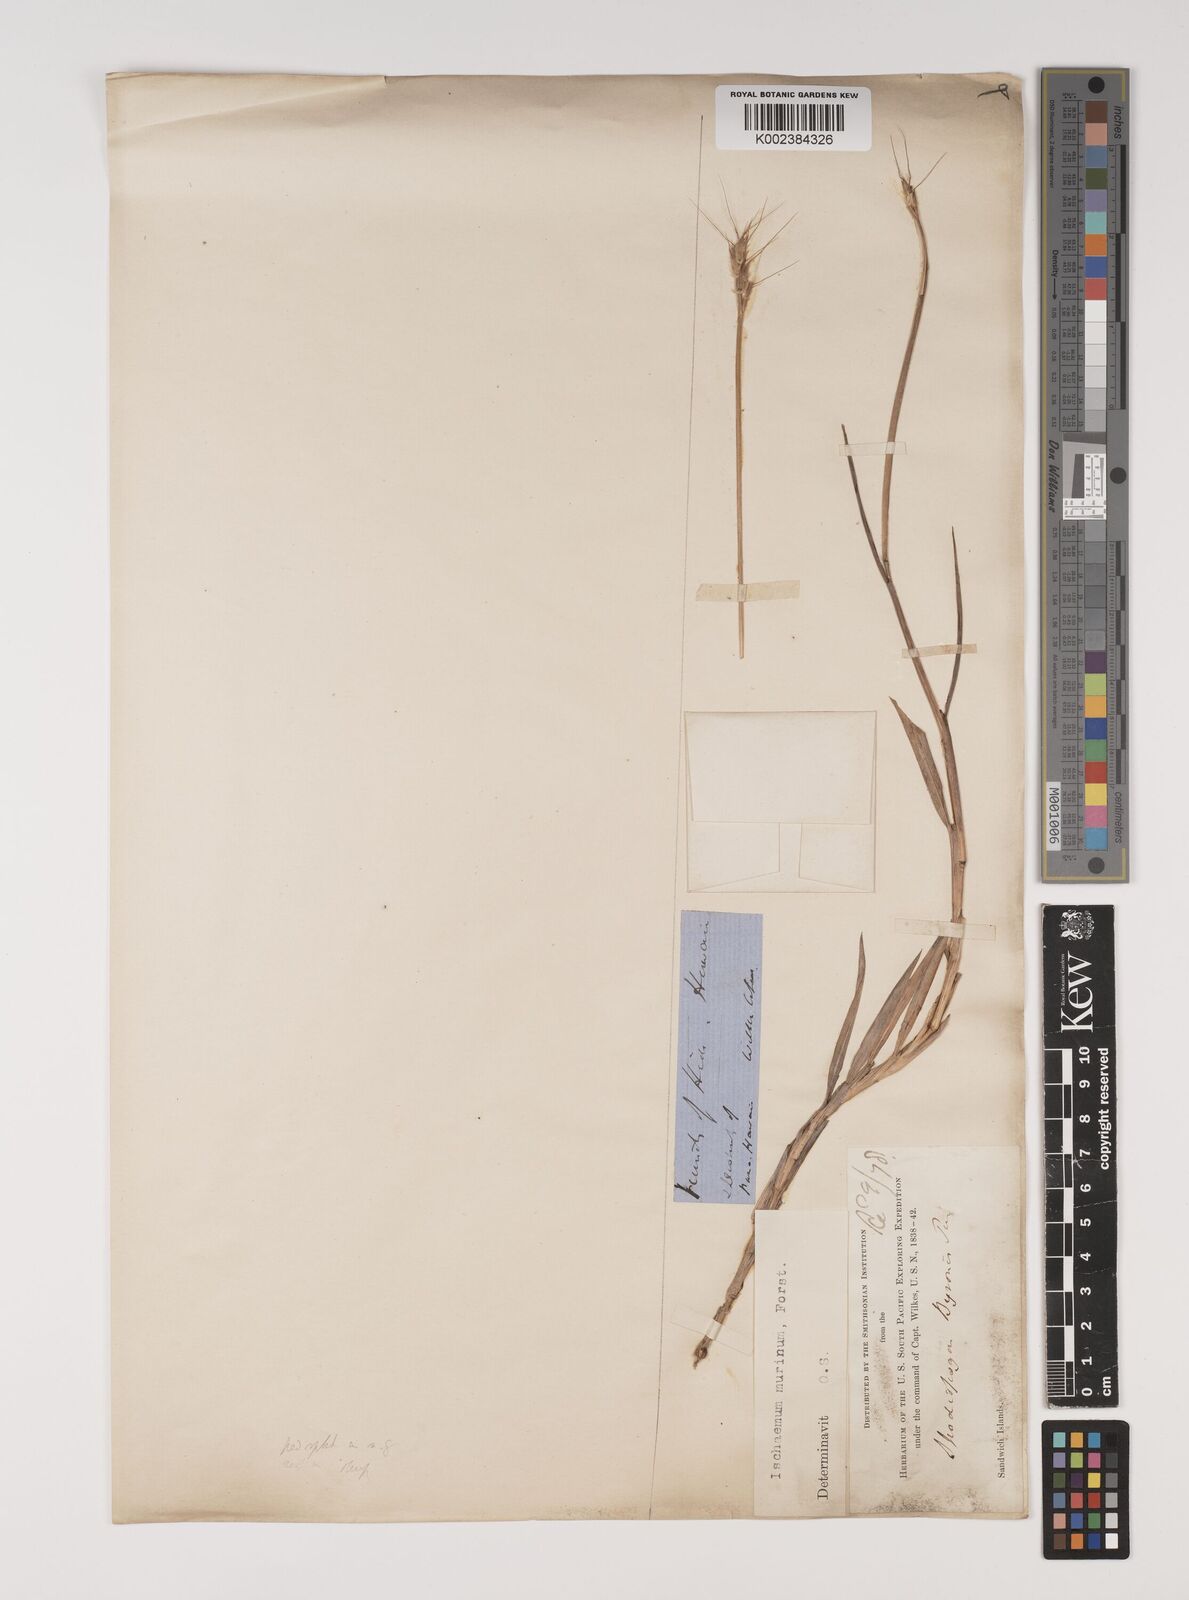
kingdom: Plantae
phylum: Tracheophyta
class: Liliopsida
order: Poales
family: Poaceae
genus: Ischaemum
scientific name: Ischaemum murinum
